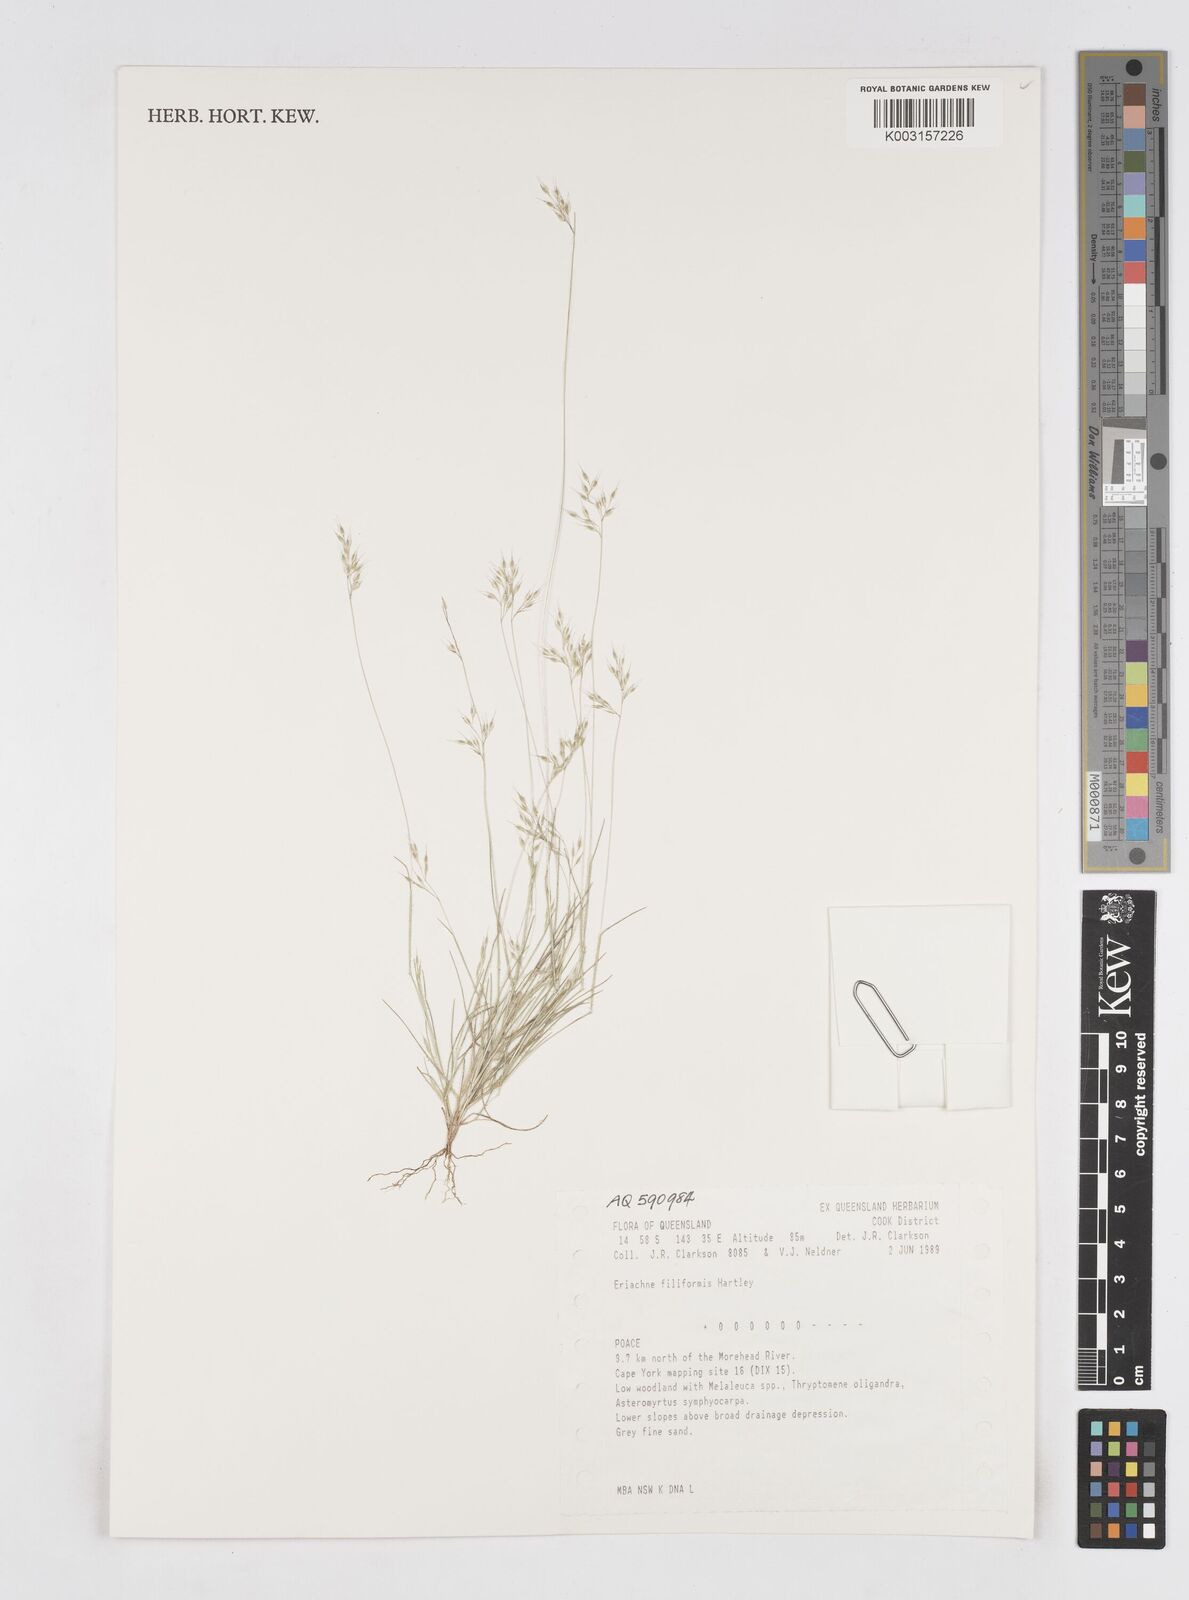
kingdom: Plantae
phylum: Tracheophyta
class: Liliopsida
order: Poales
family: Poaceae
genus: Eriachne
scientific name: Eriachne filiformis
